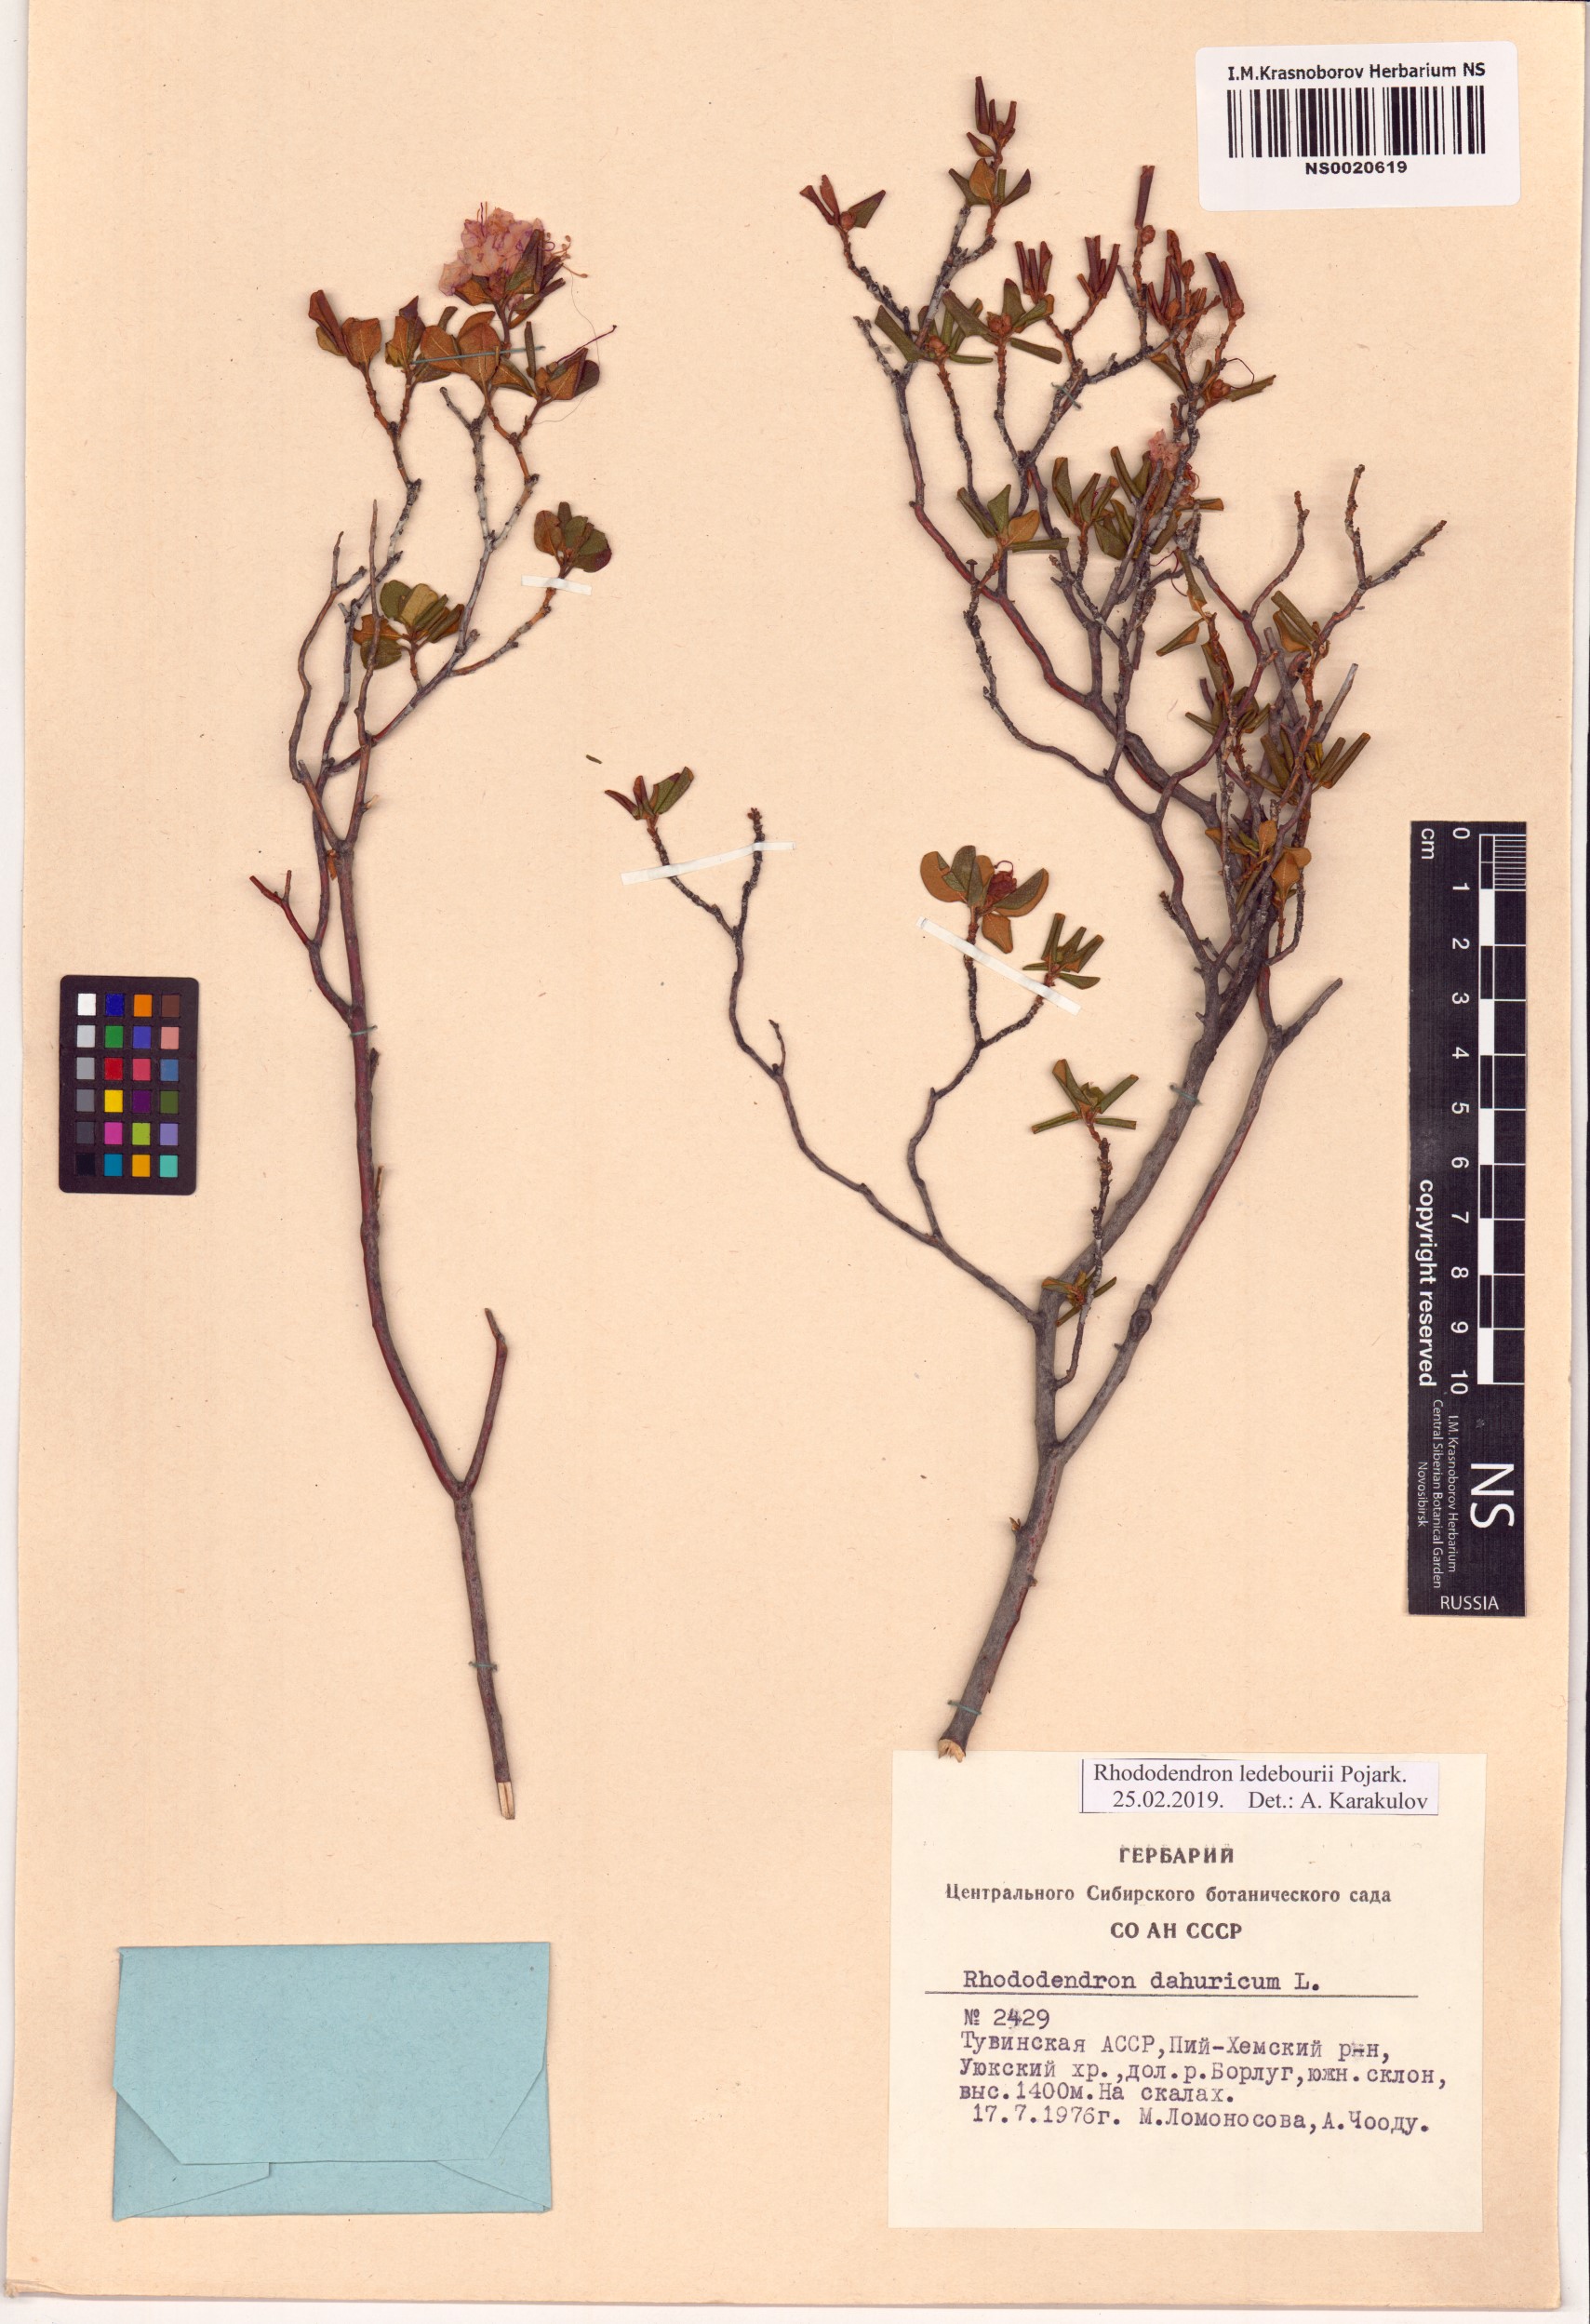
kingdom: Plantae
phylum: Tracheophyta
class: Magnoliopsida
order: Ericales
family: Ericaceae
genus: Rhododendron
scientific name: Rhododendron dauricum
